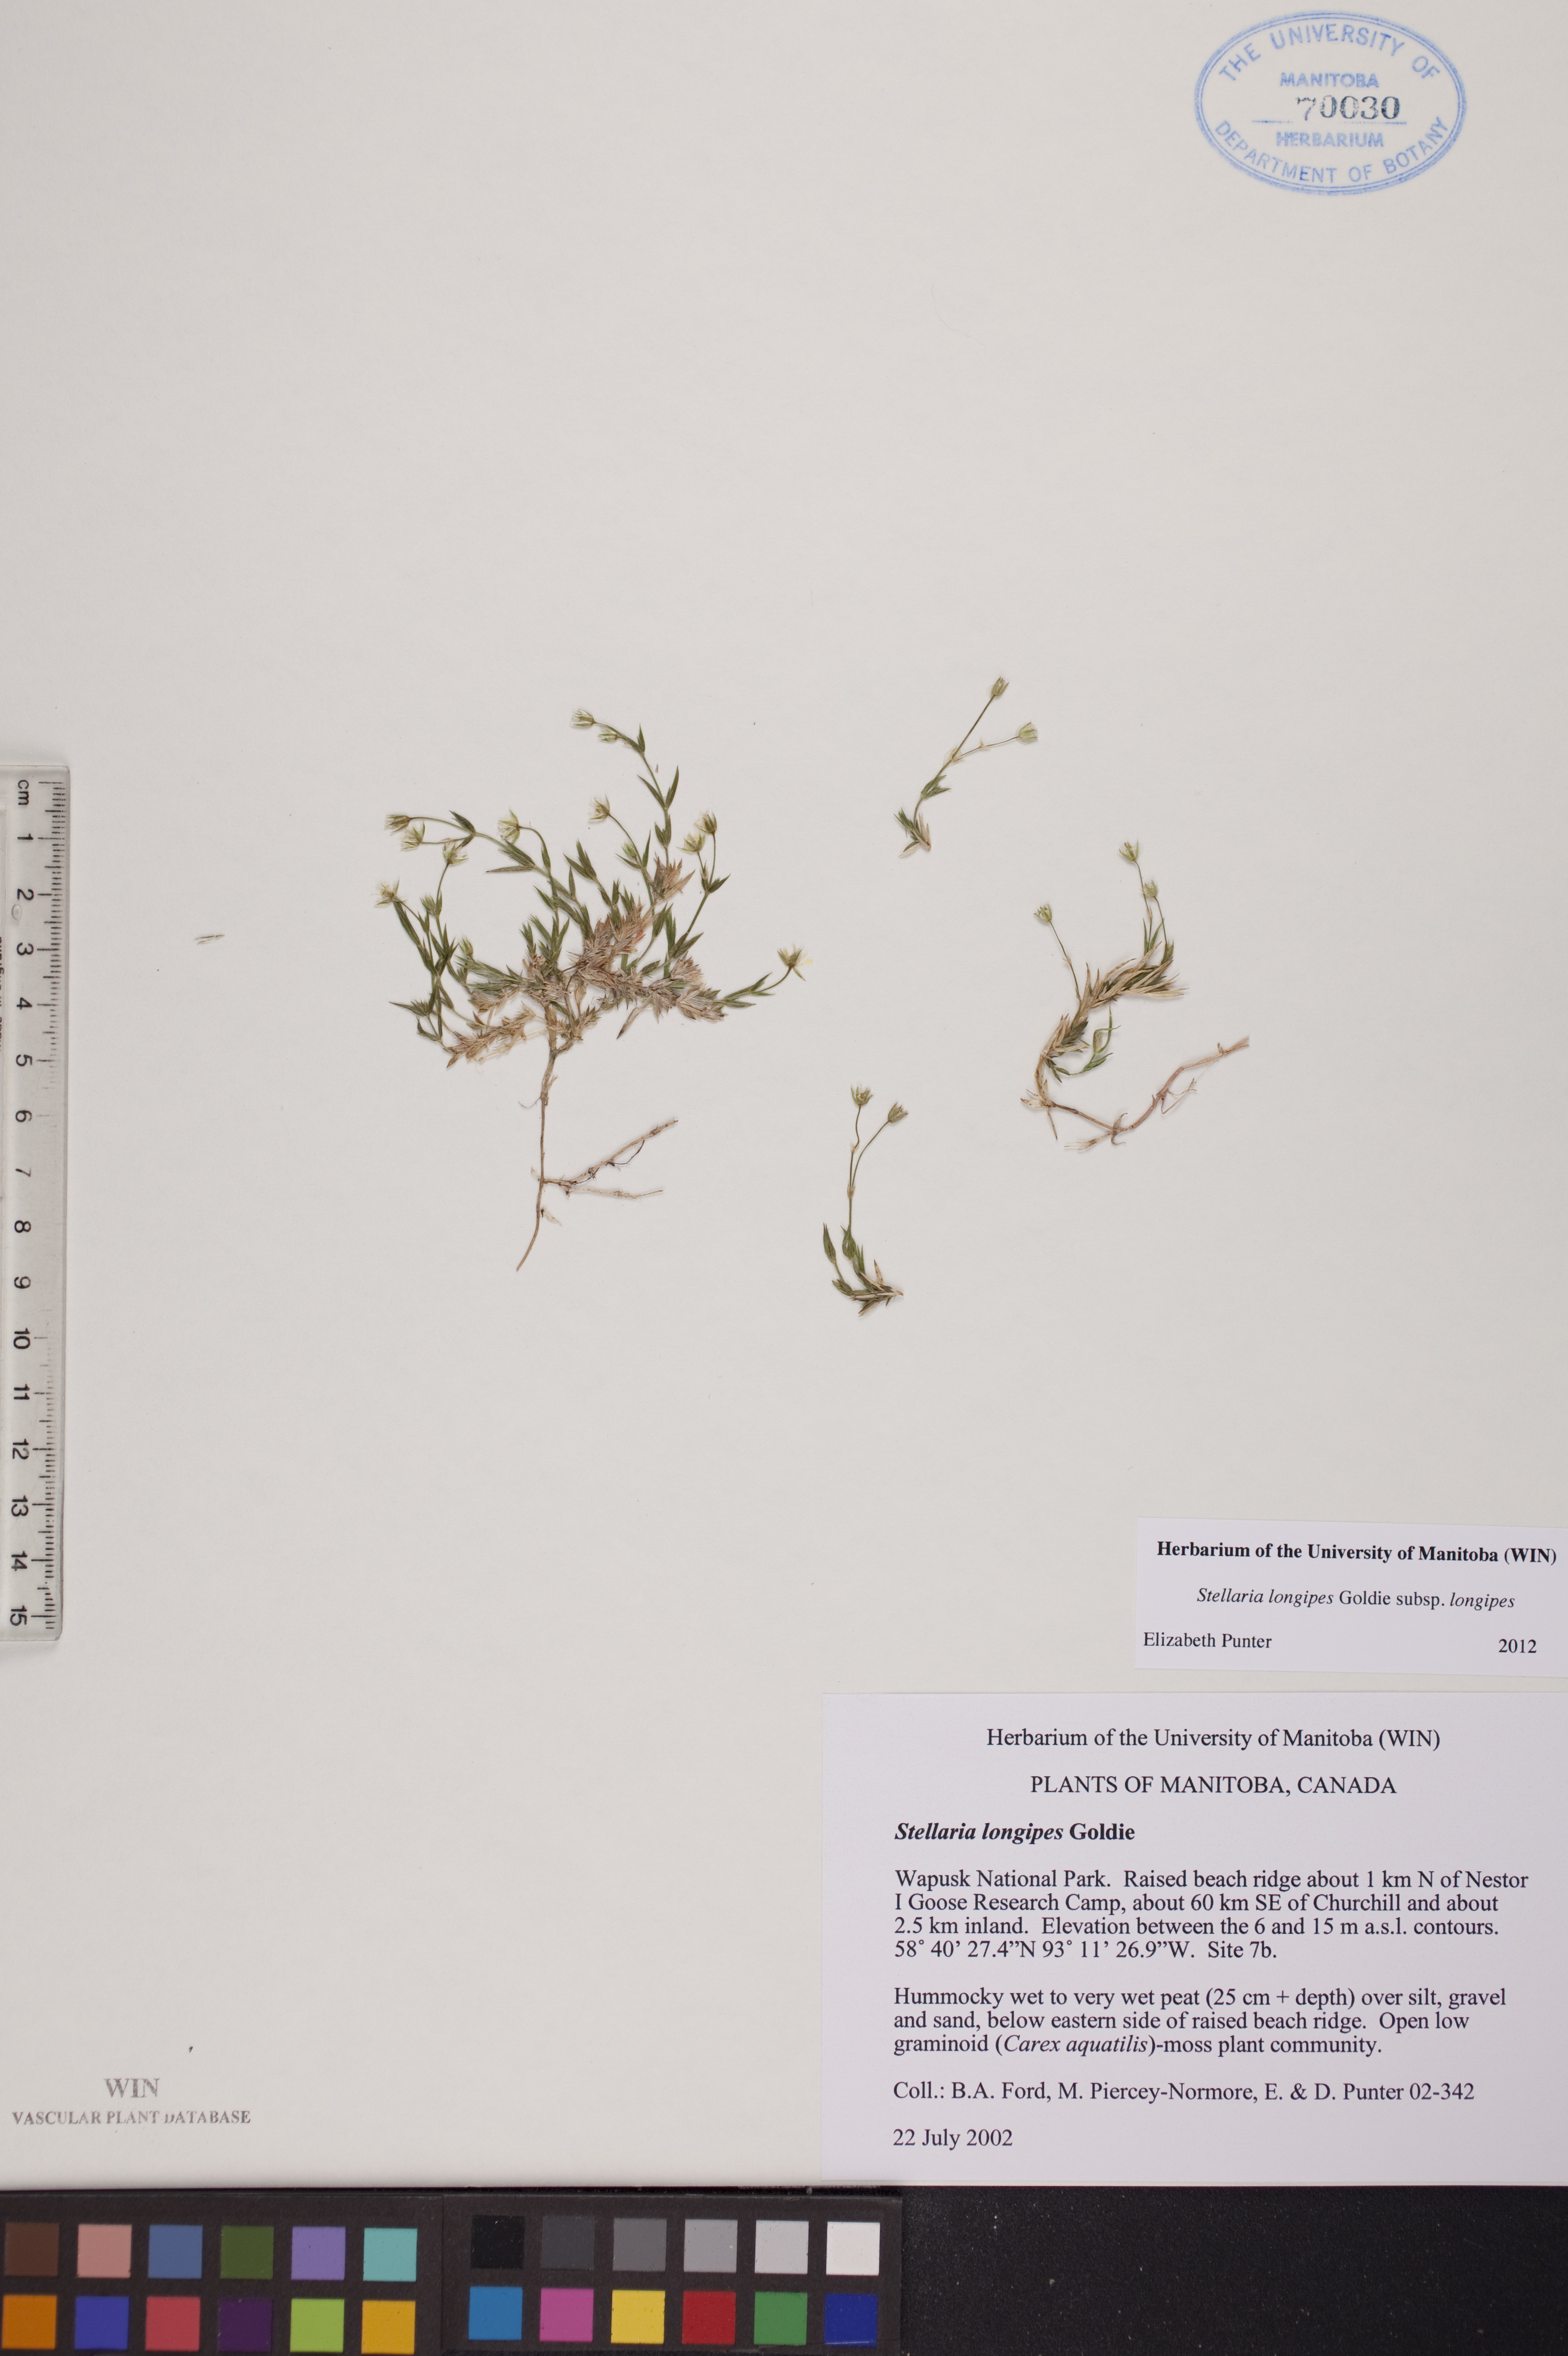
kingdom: Plantae
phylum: Tracheophyta
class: Magnoliopsida
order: Caryophyllales
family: Caryophyllaceae
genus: Stellaria
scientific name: Stellaria longipes
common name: Goldie's starwort
